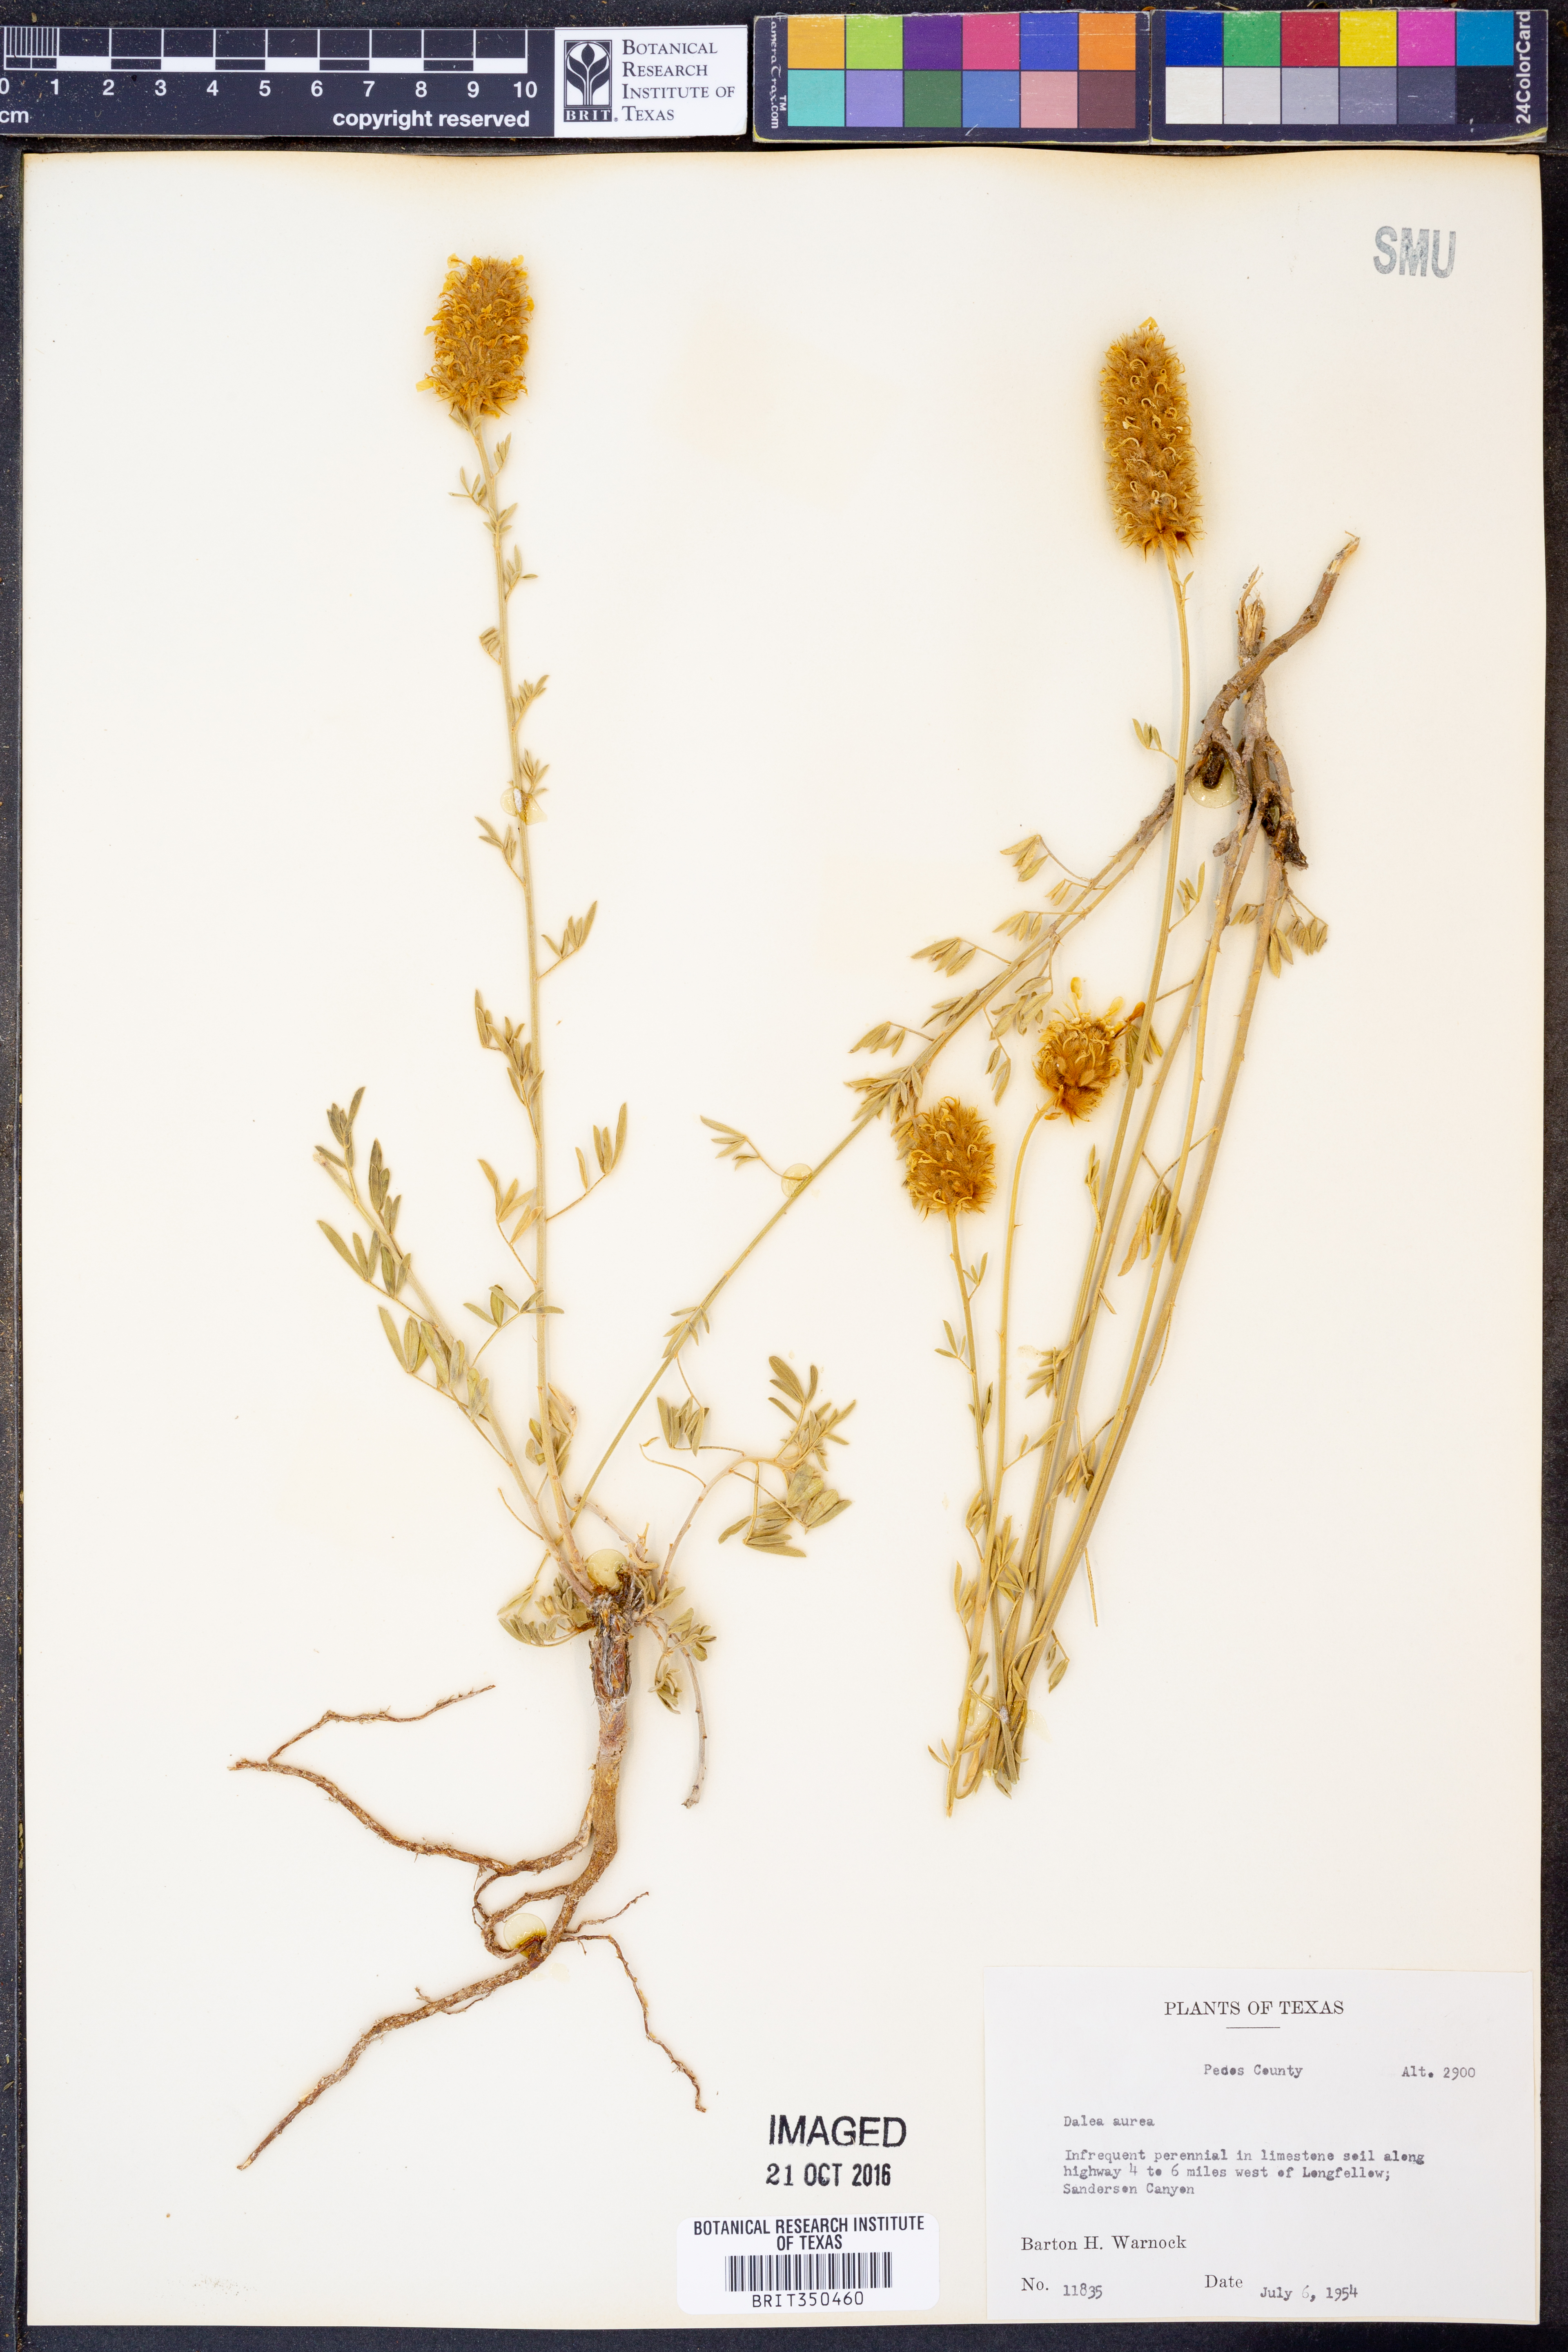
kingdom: Plantae
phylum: Tracheophyta
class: Magnoliopsida
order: Fabales
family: Fabaceae
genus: Dalea
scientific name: Dalea aurea
